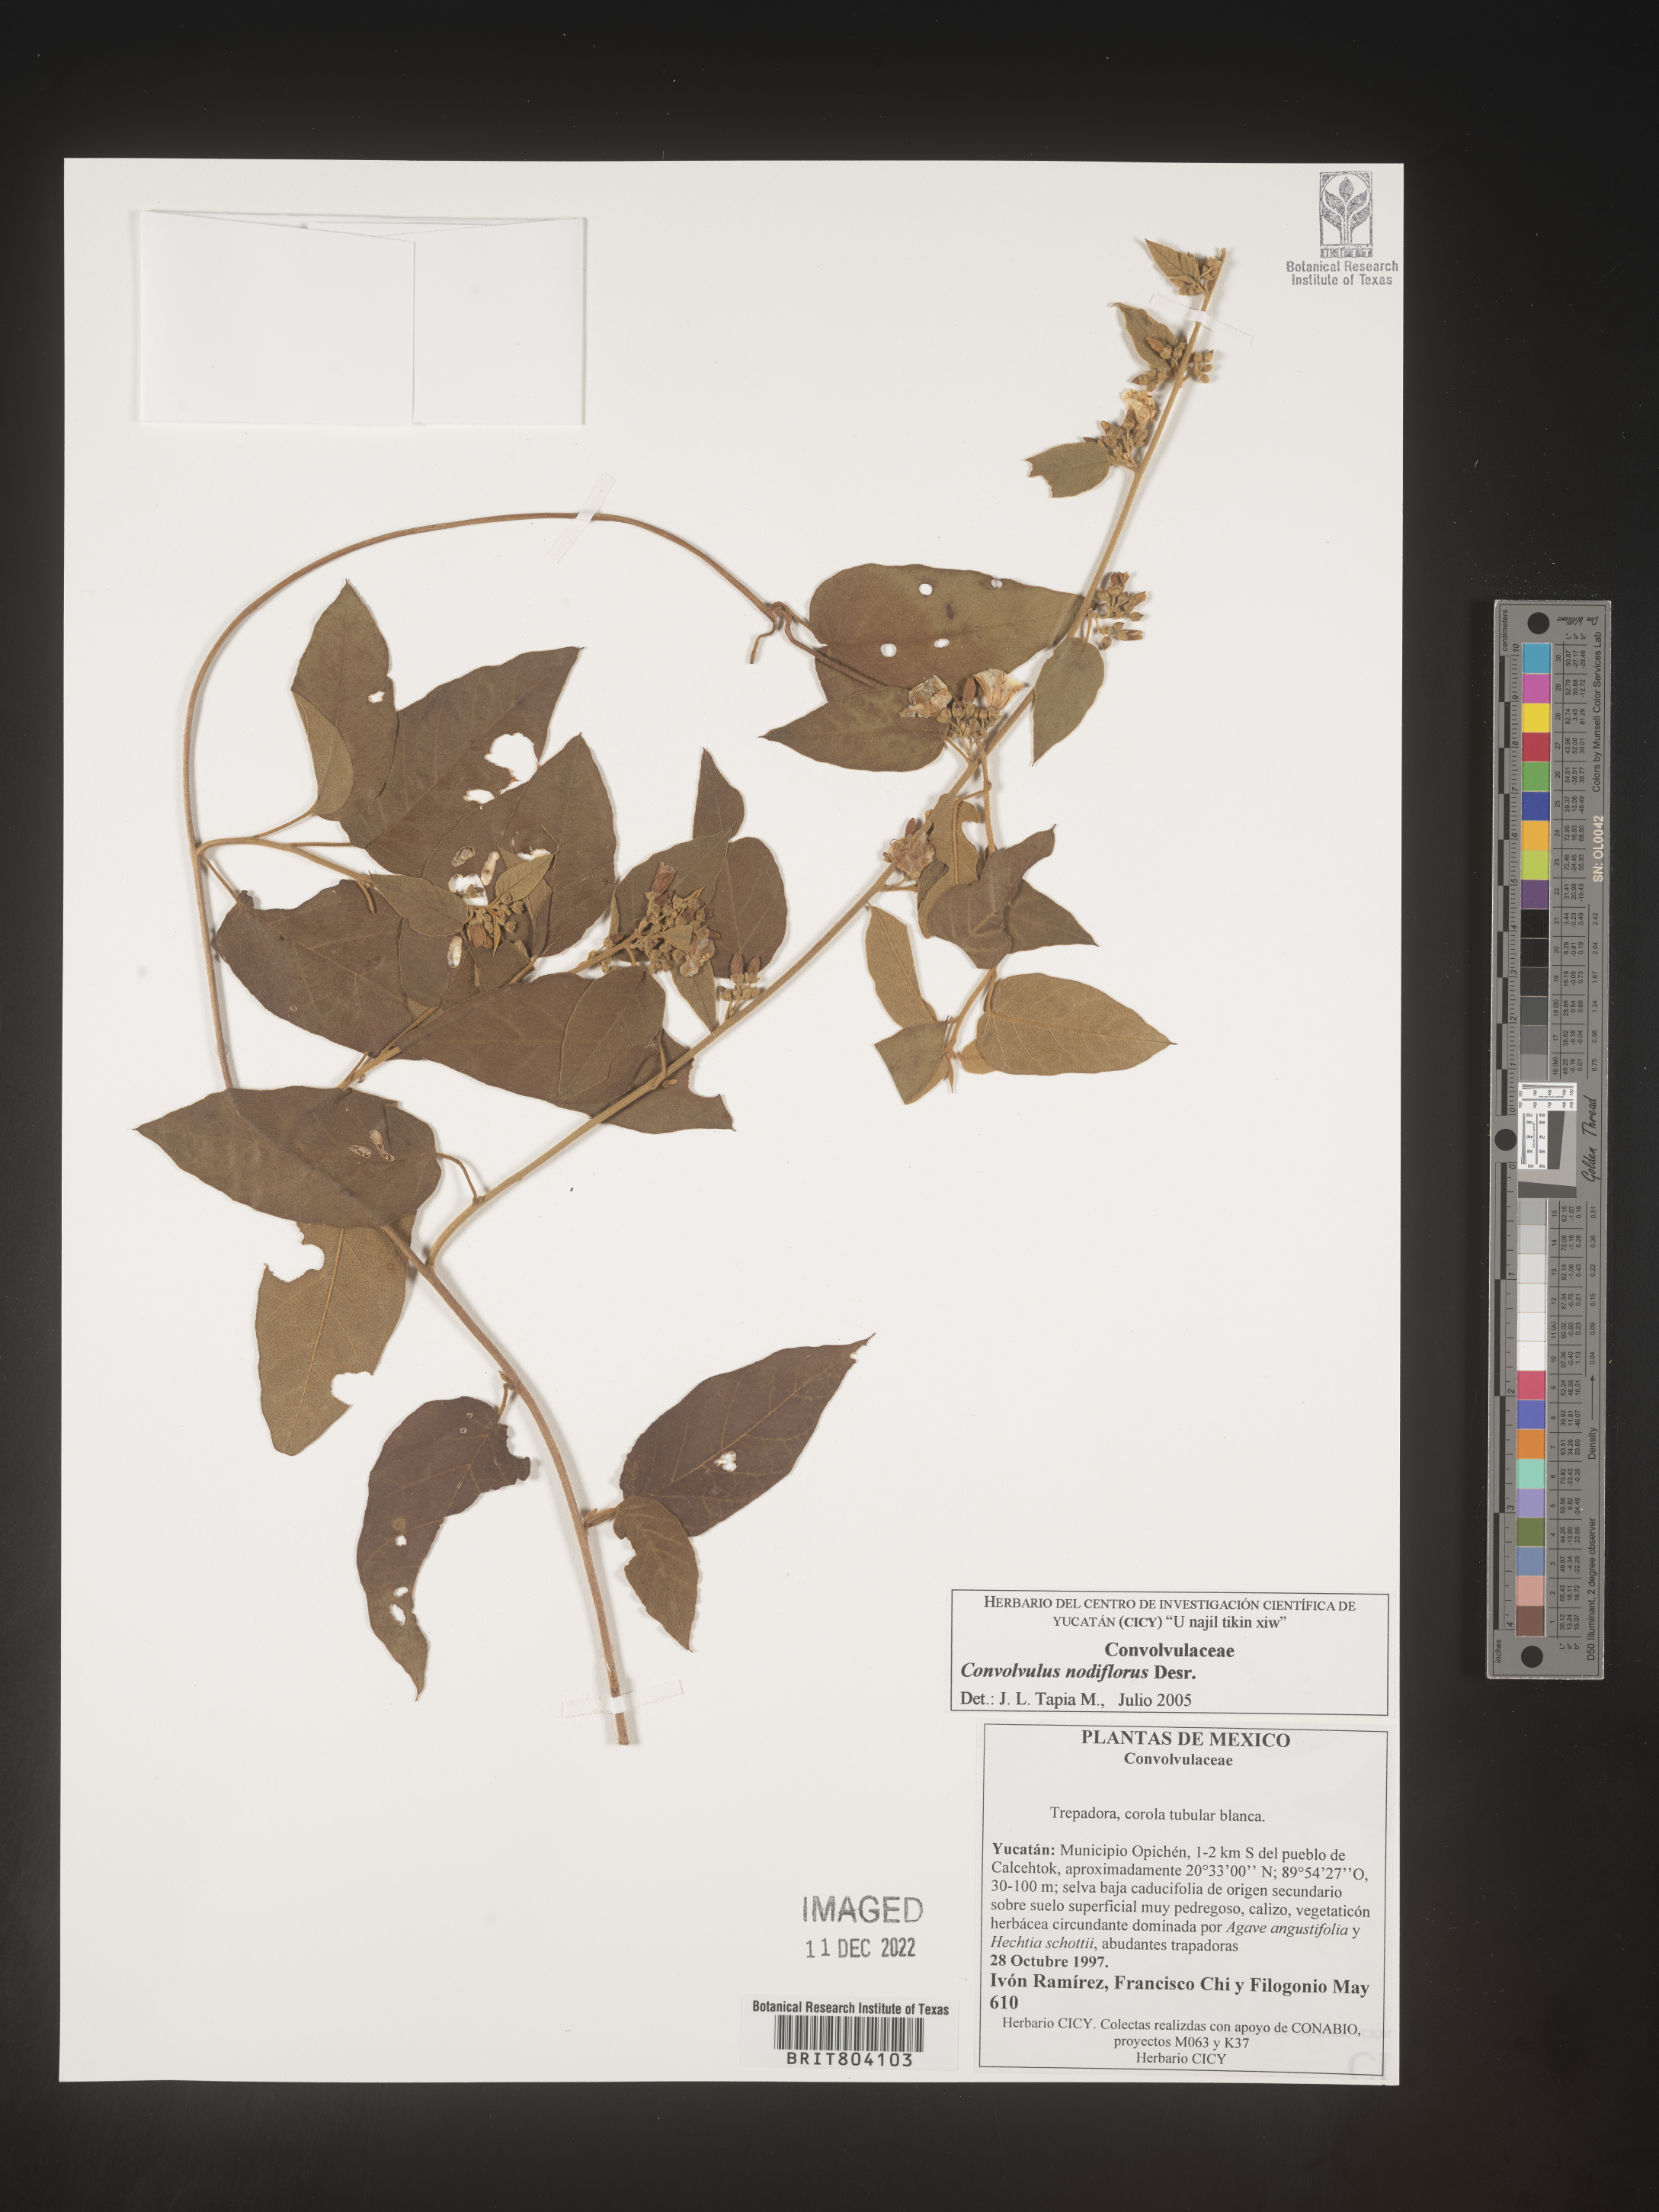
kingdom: Plantae
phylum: Tracheophyta
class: Magnoliopsida
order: Solanales
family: Convolvulaceae
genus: Convolvulus
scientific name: Convolvulus
